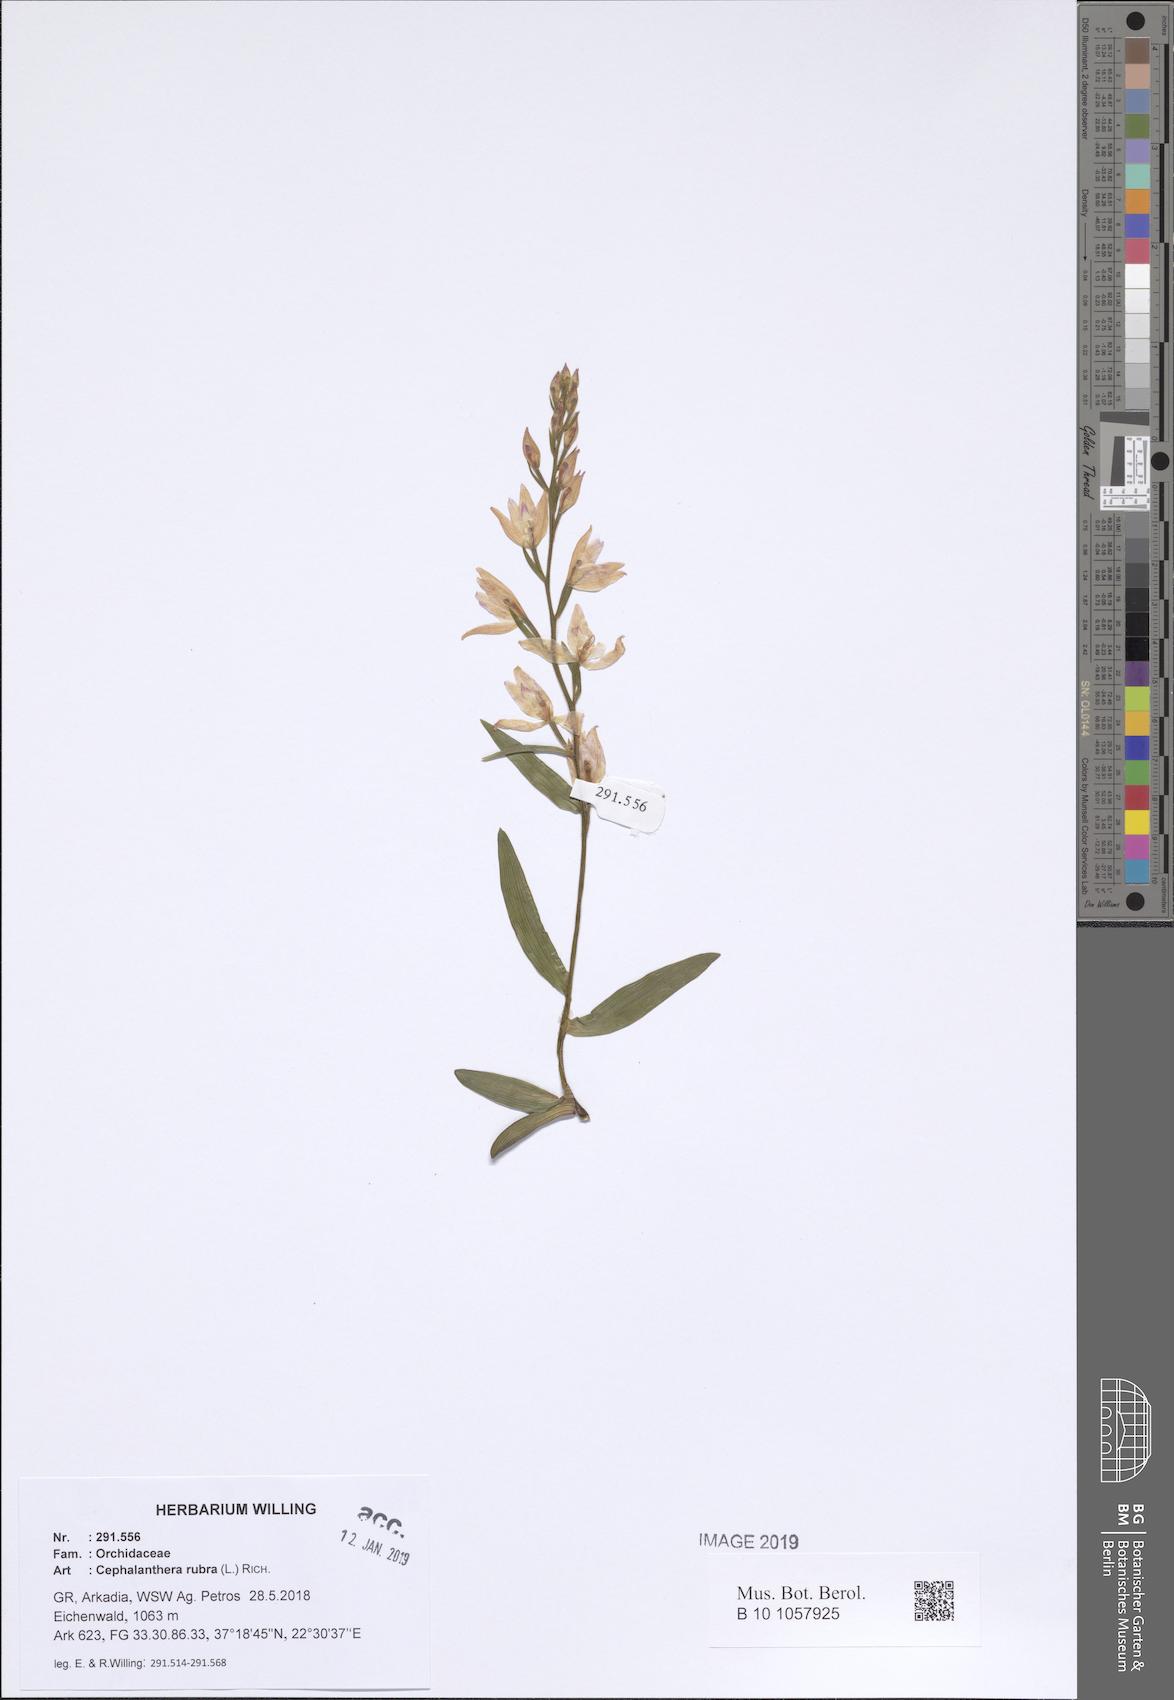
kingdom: Plantae
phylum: Tracheophyta
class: Liliopsida
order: Asparagales
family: Orchidaceae
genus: Cephalanthera
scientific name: Cephalanthera rubra
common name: Red helleborine
